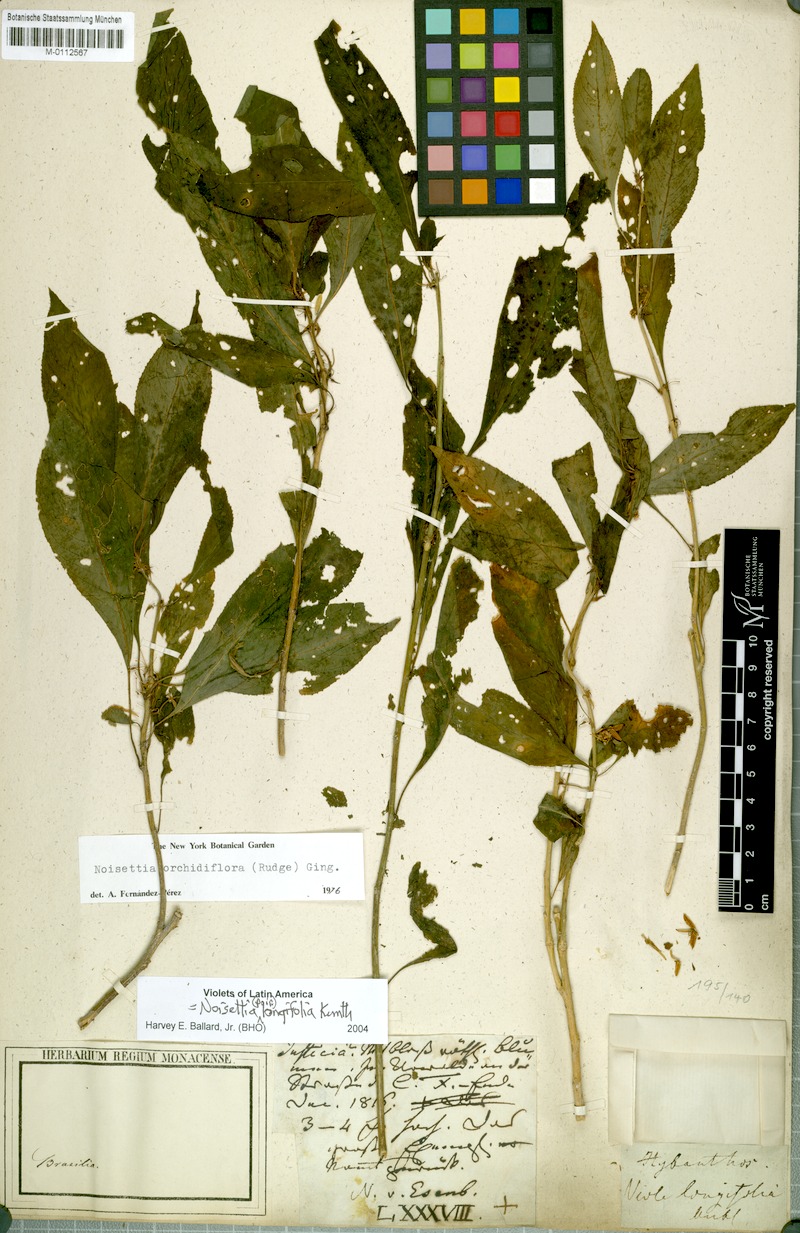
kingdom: Plantae
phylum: Tracheophyta
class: Magnoliopsida
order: Malpighiales
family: Violaceae
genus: Noisettia
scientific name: Noisettia orchidiflora
